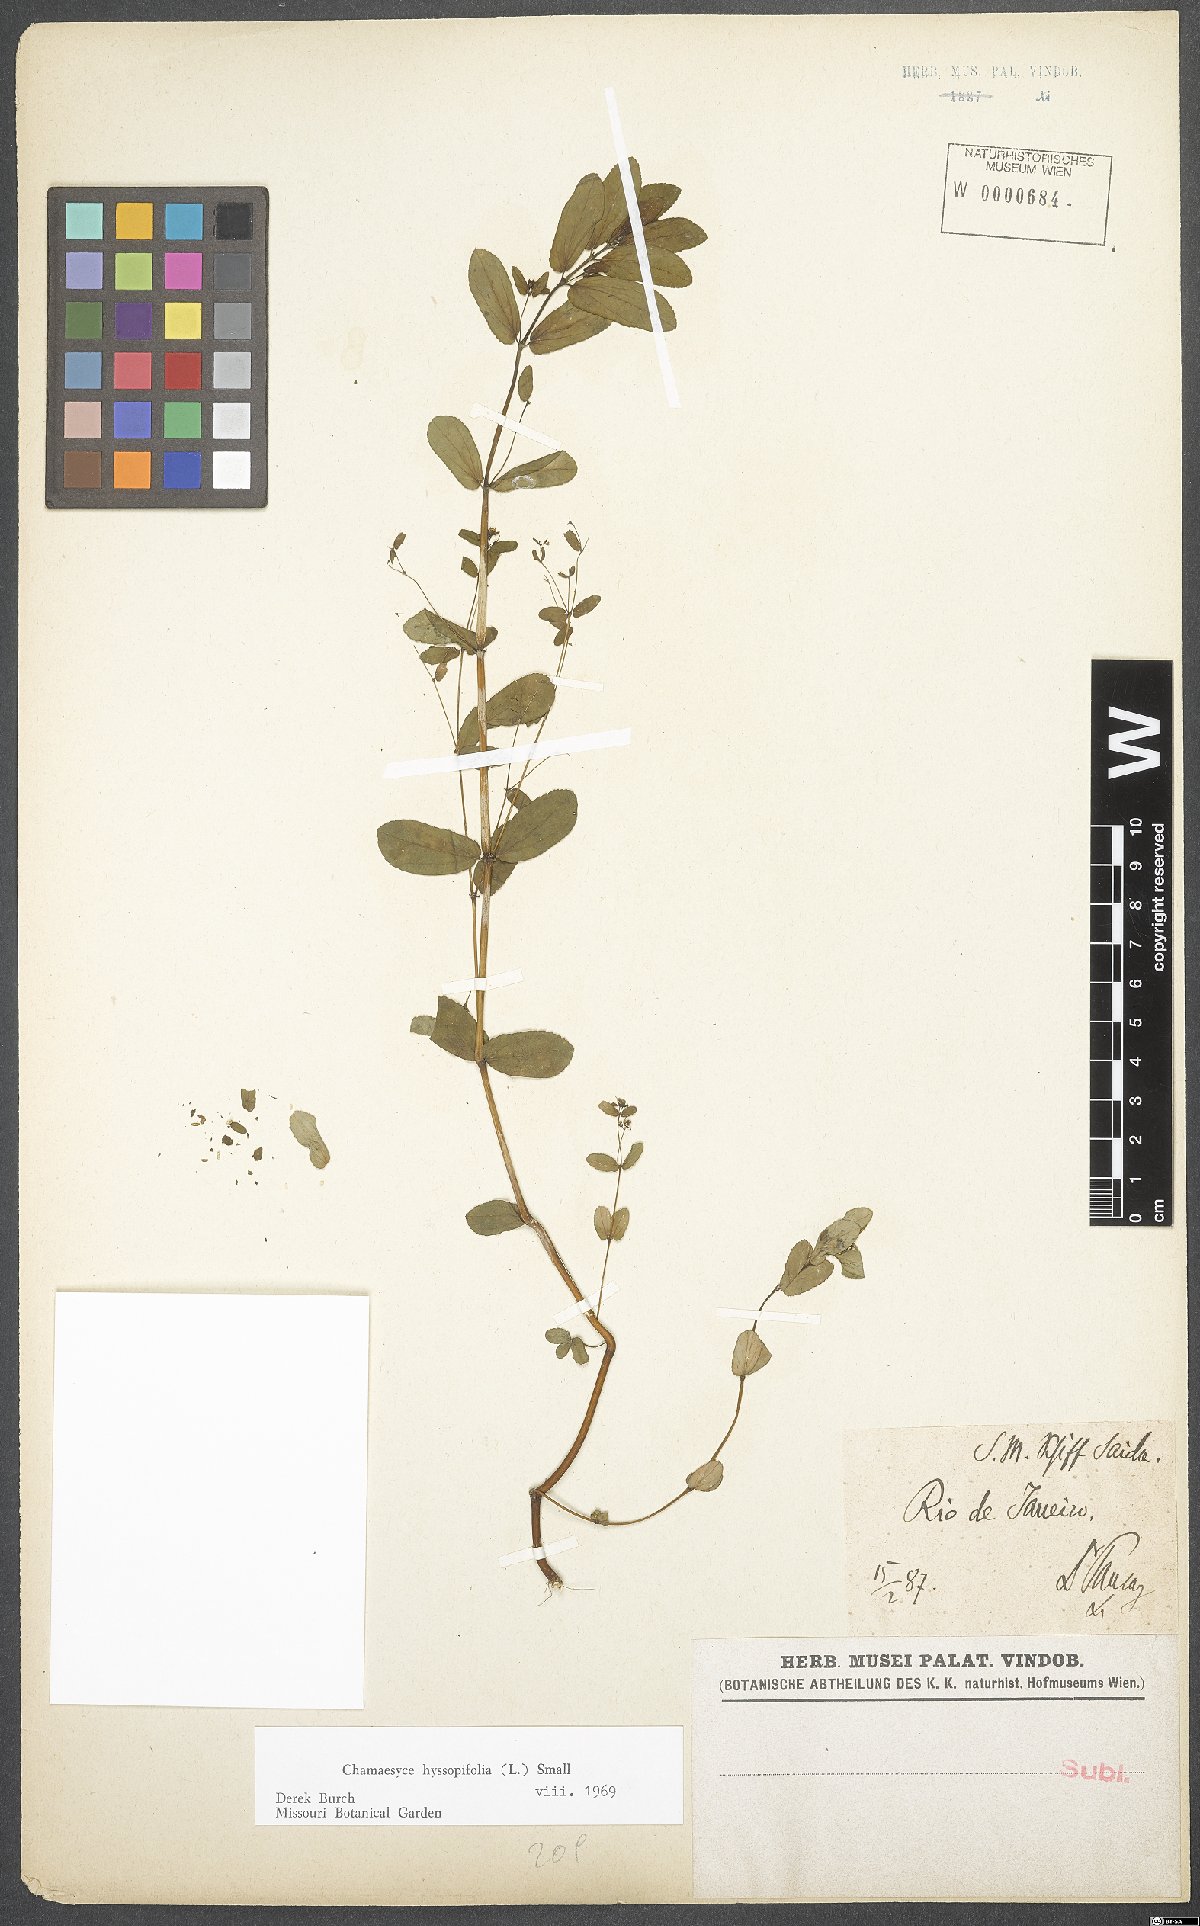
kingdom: Plantae
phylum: Tracheophyta
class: Magnoliopsida
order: Malpighiales
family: Euphorbiaceae
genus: Euphorbia
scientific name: Euphorbia hyssopifolia
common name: Hyssopleaf sandmat
